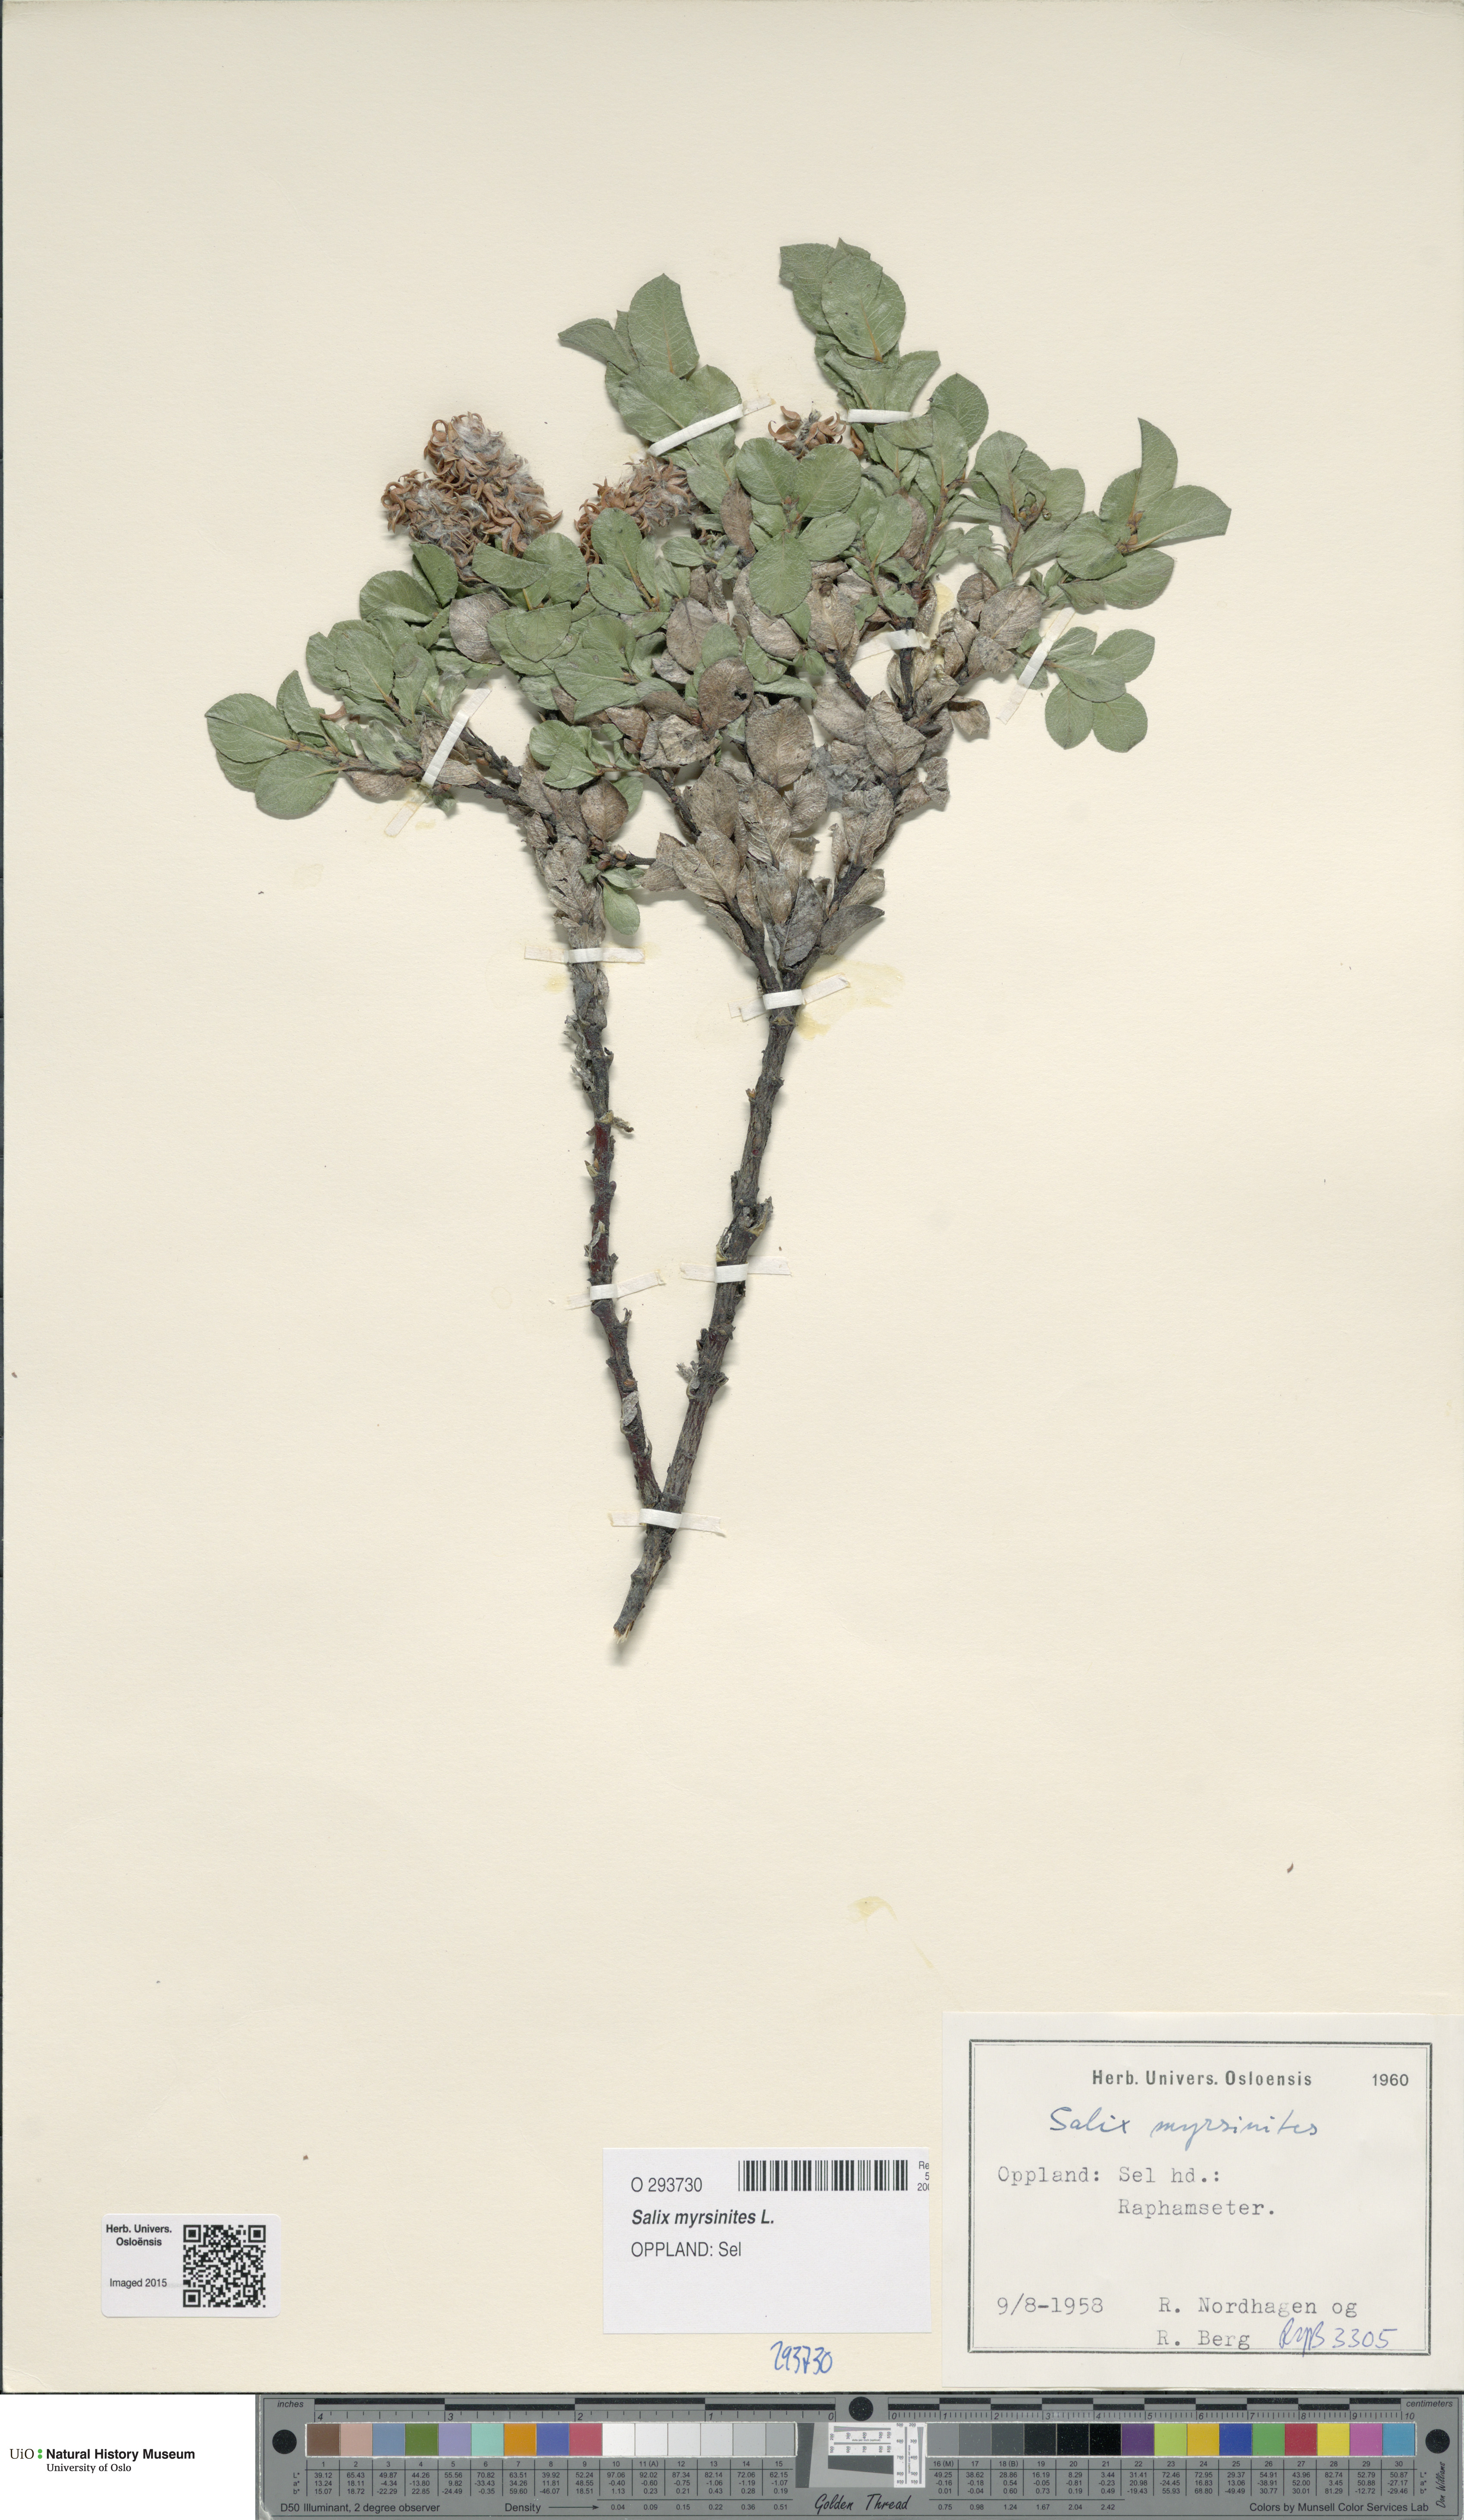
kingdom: Plantae
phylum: Tracheophyta
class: Magnoliopsida
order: Malpighiales
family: Salicaceae
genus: Salix
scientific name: Salix myrsinites
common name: Myrtle willow
